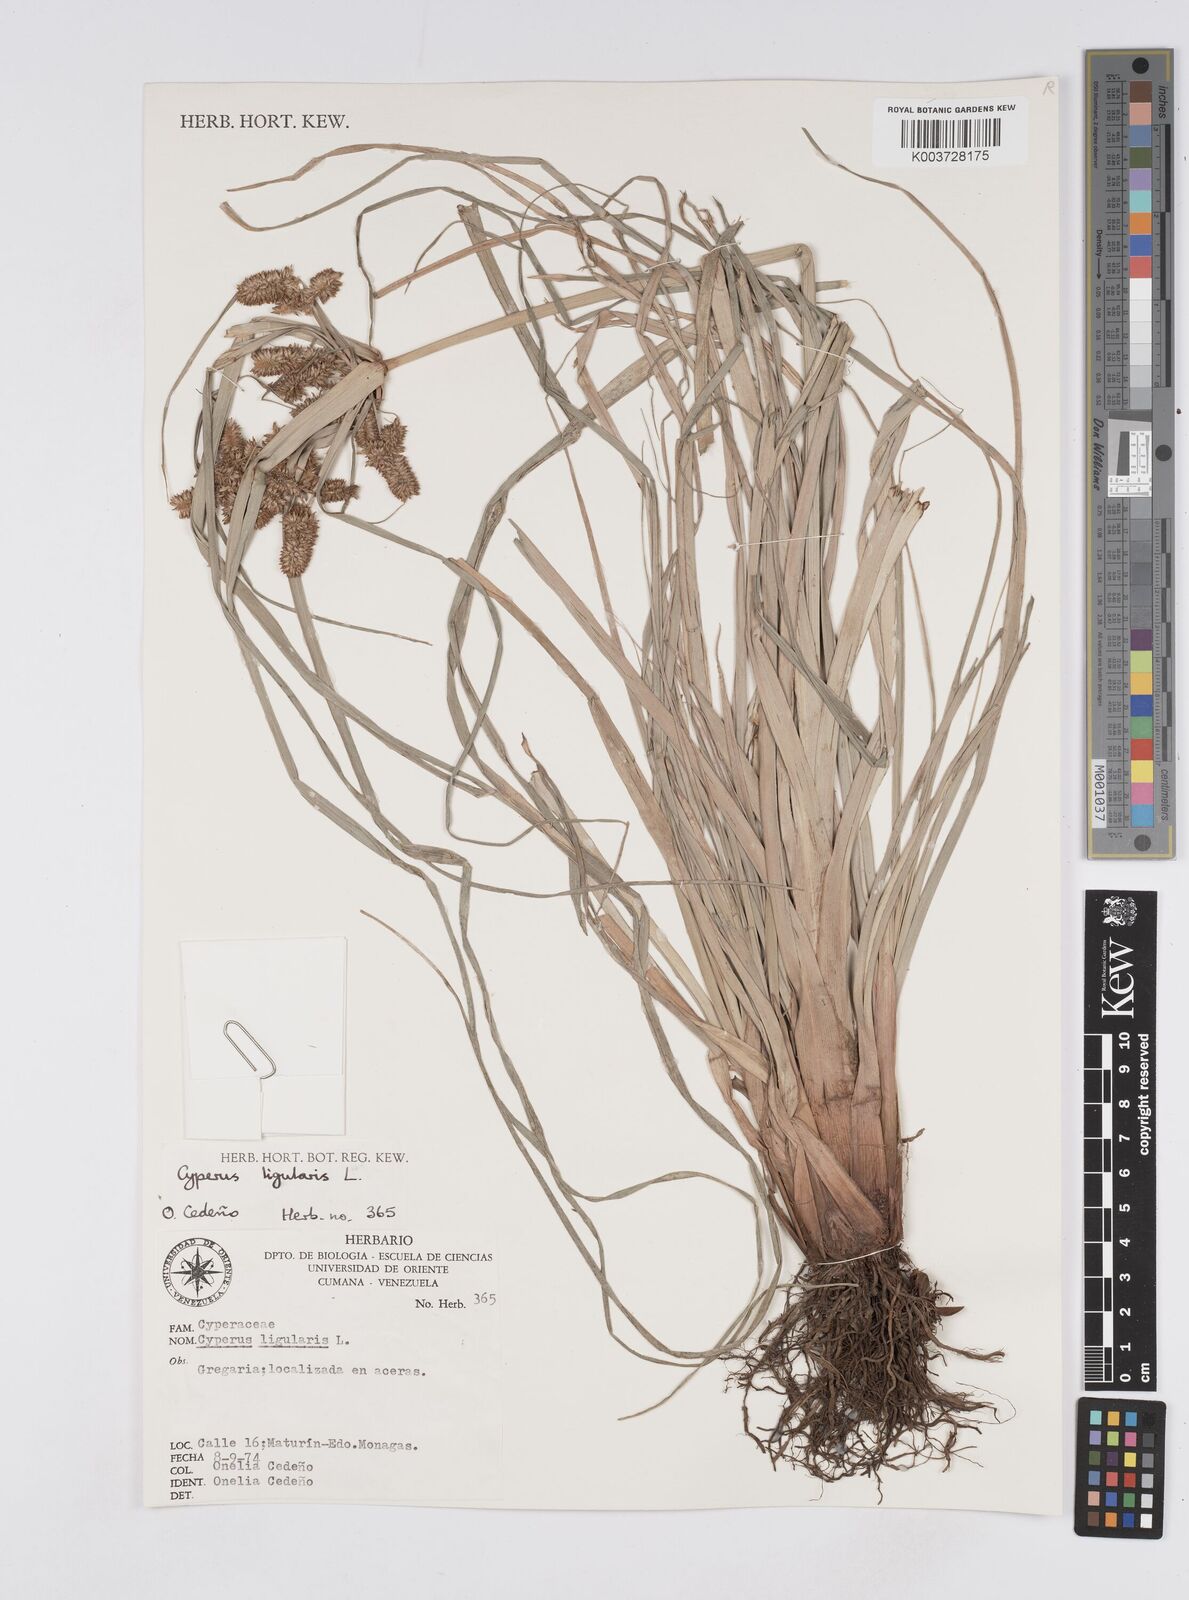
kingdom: Plantae
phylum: Tracheophyta
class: Liliopsida
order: Poales
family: Cyperaceae
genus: Cyperus
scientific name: Cyperus ligularis
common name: Swamp flat sedge
